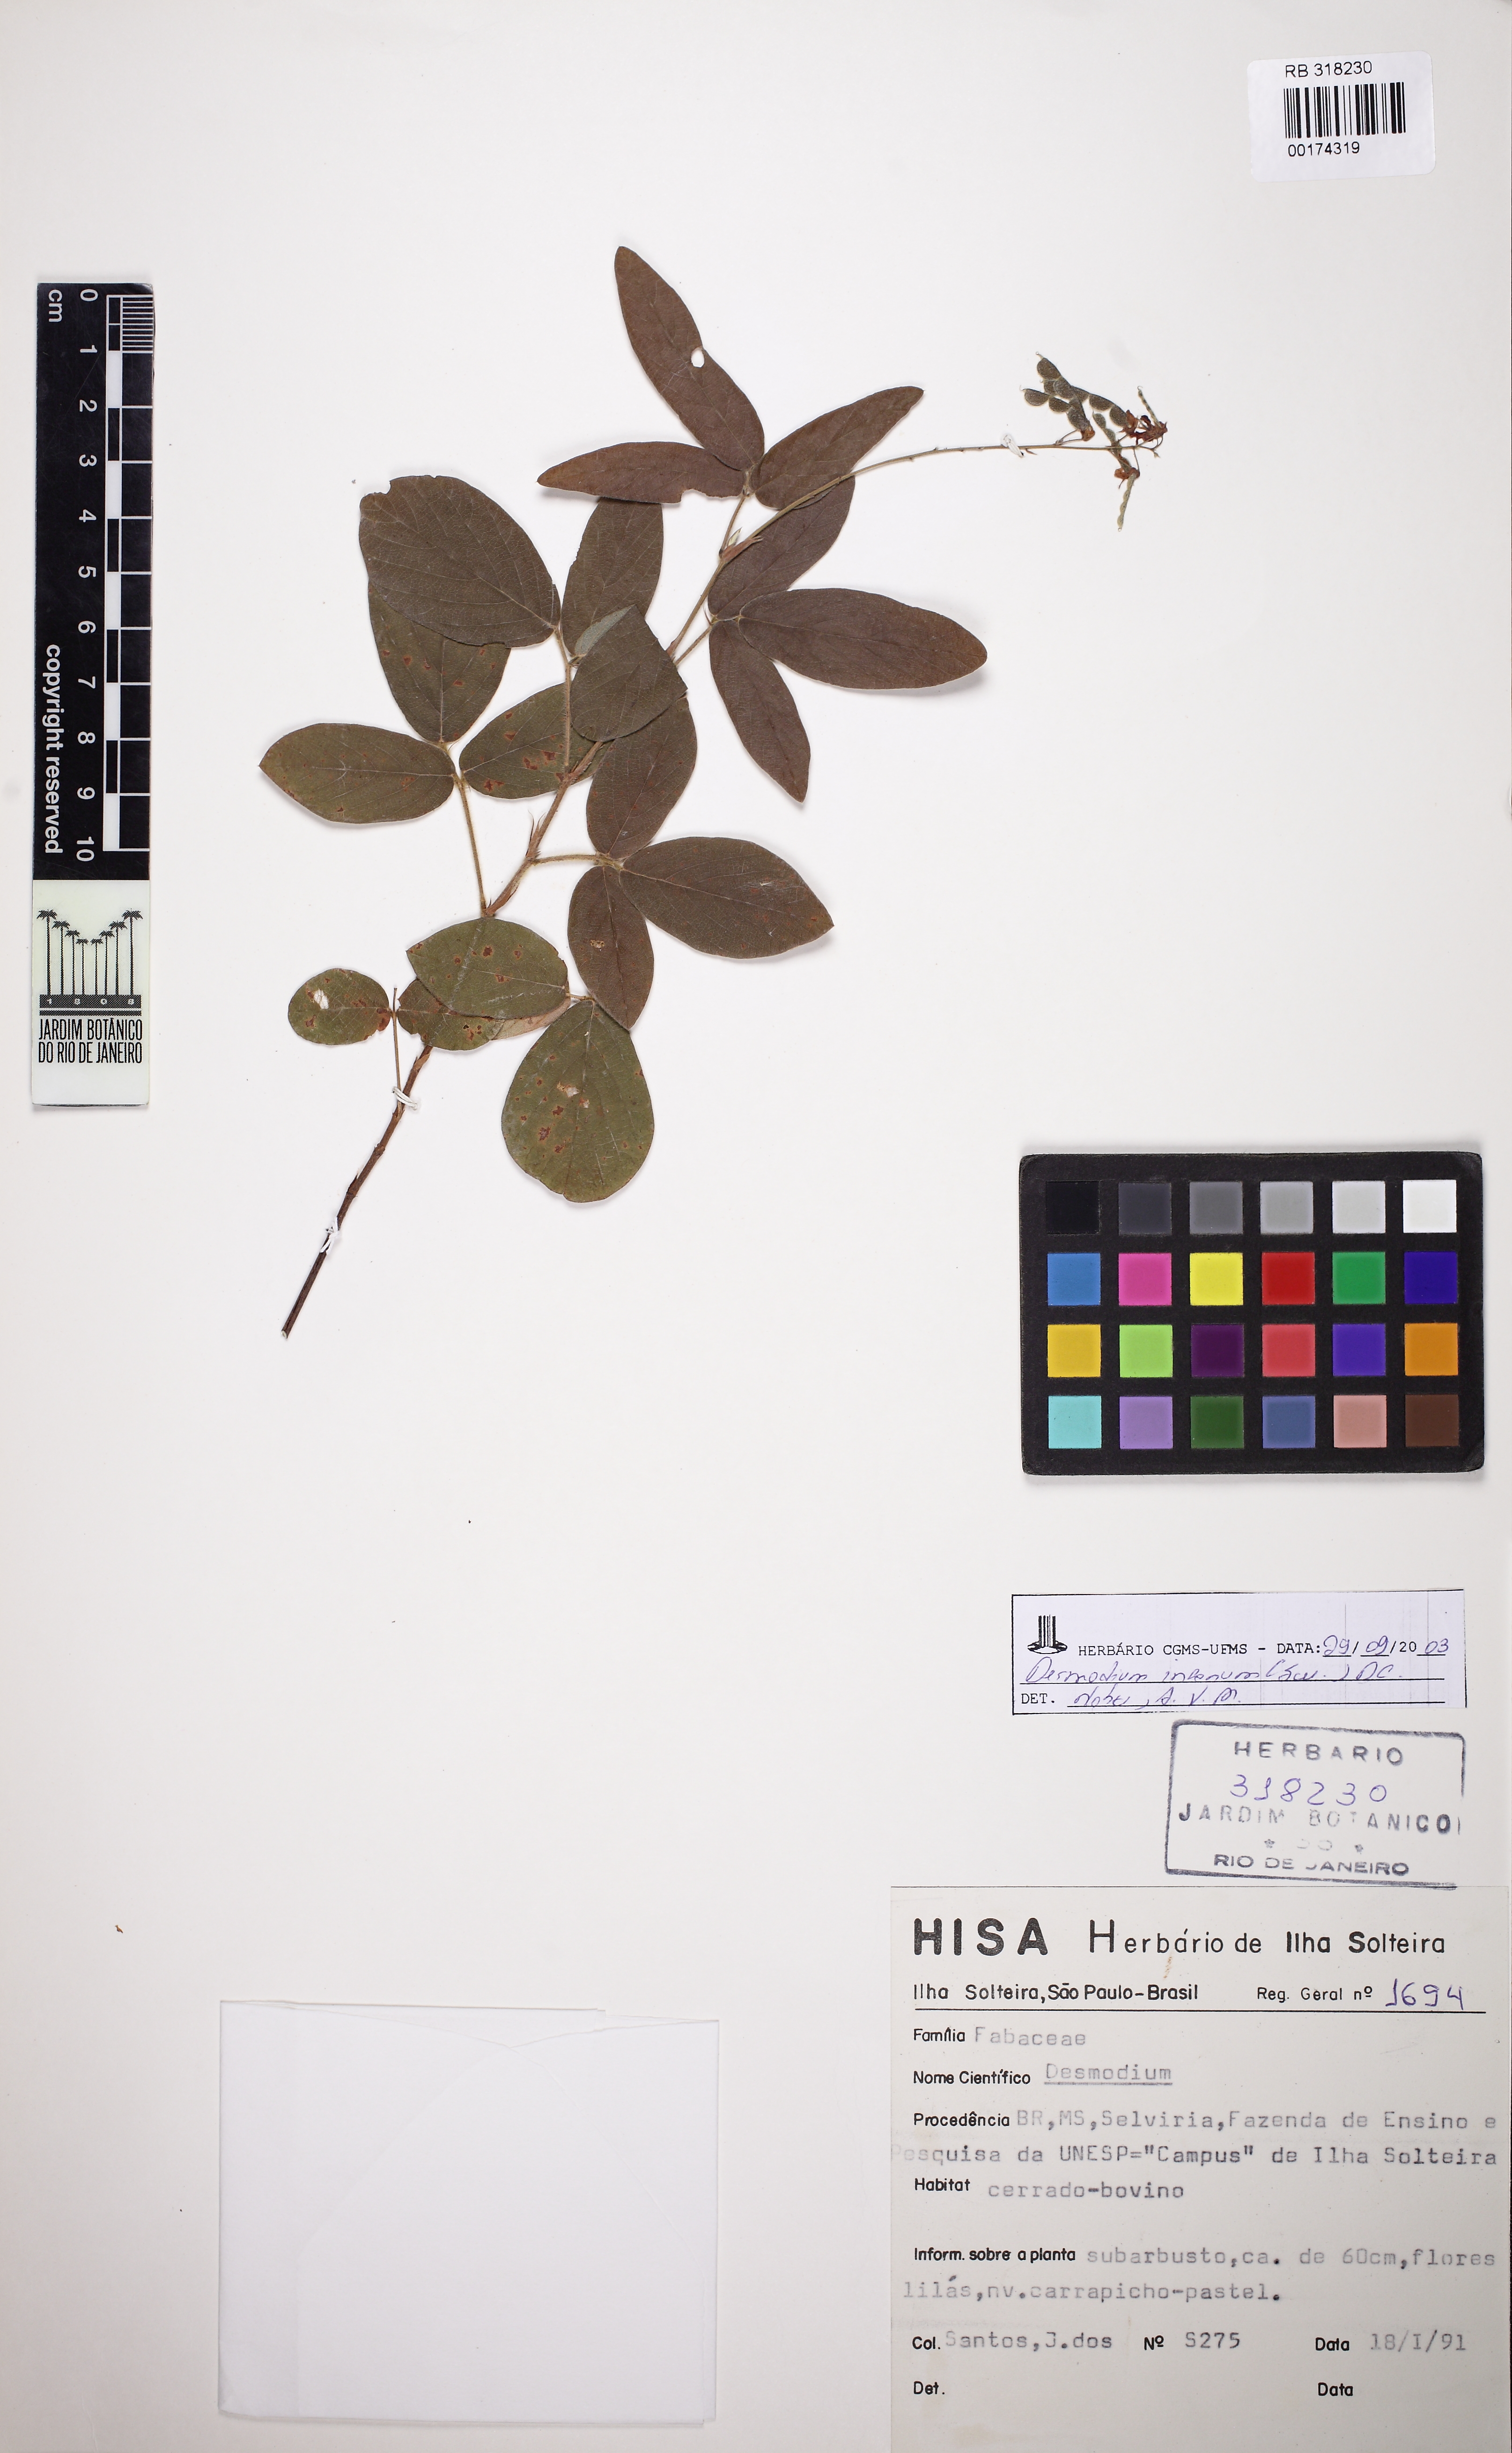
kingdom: Plantae
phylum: Tracheophyta
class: Magnoliopsida
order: Fabales
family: Fabaceae
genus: Desmodium
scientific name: Desmodium incanum
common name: Tickclover
